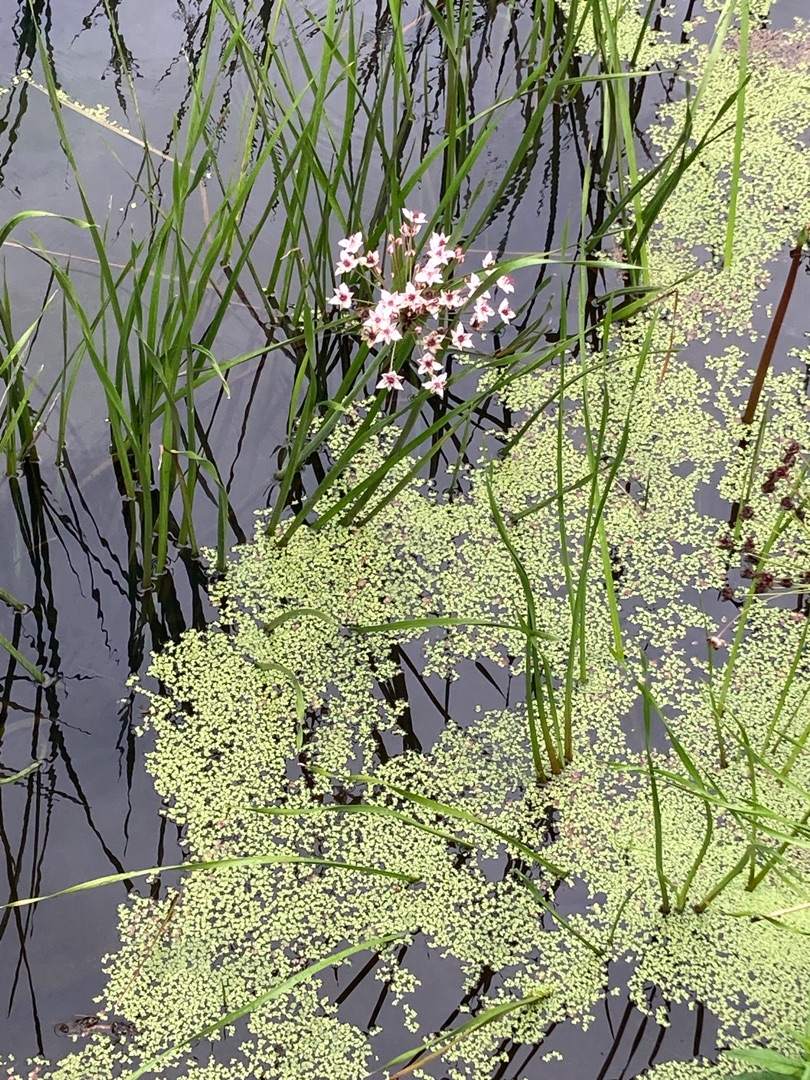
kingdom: Plantae
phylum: Tracheophyta
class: Liliopsida
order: Alismatales
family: Butomaceae
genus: Butomus
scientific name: Butomus umbellatus
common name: Brudelys
